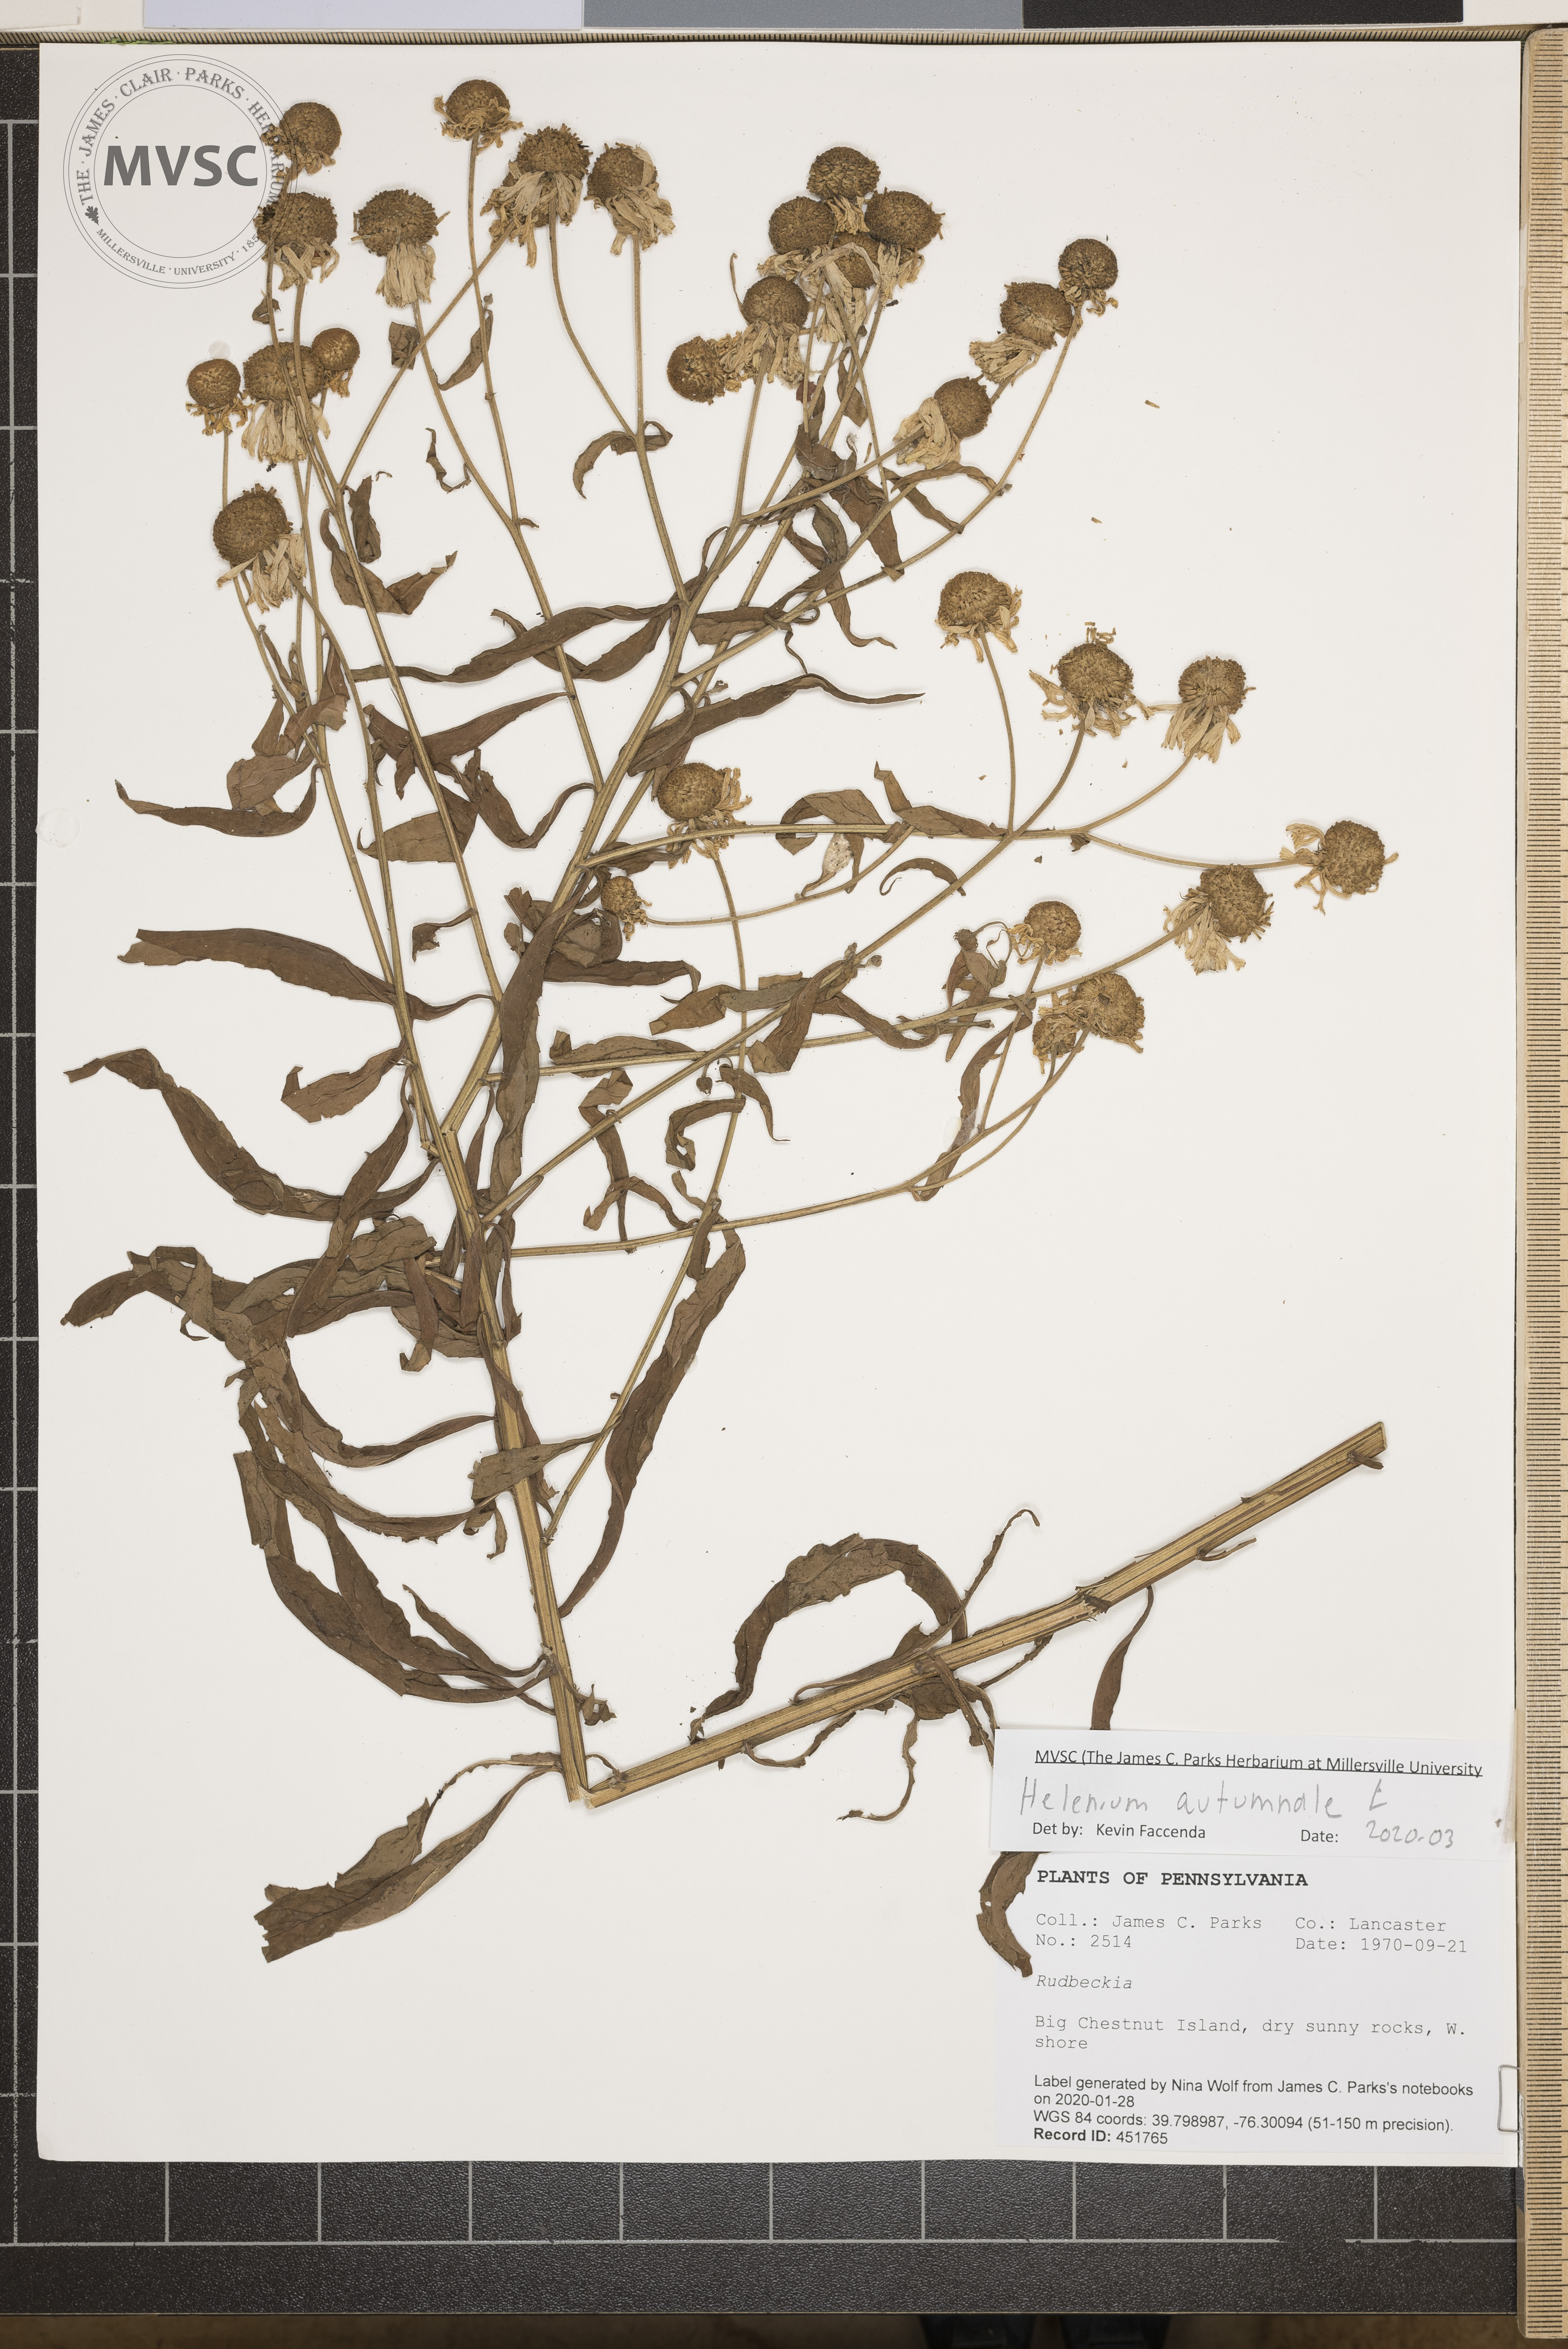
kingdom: Plantae
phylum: Tracheophyta
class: Magnoliopsida
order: Asterales
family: Asteraceae
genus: Helenium
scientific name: Helenium autumnale
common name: Sneezeweed
